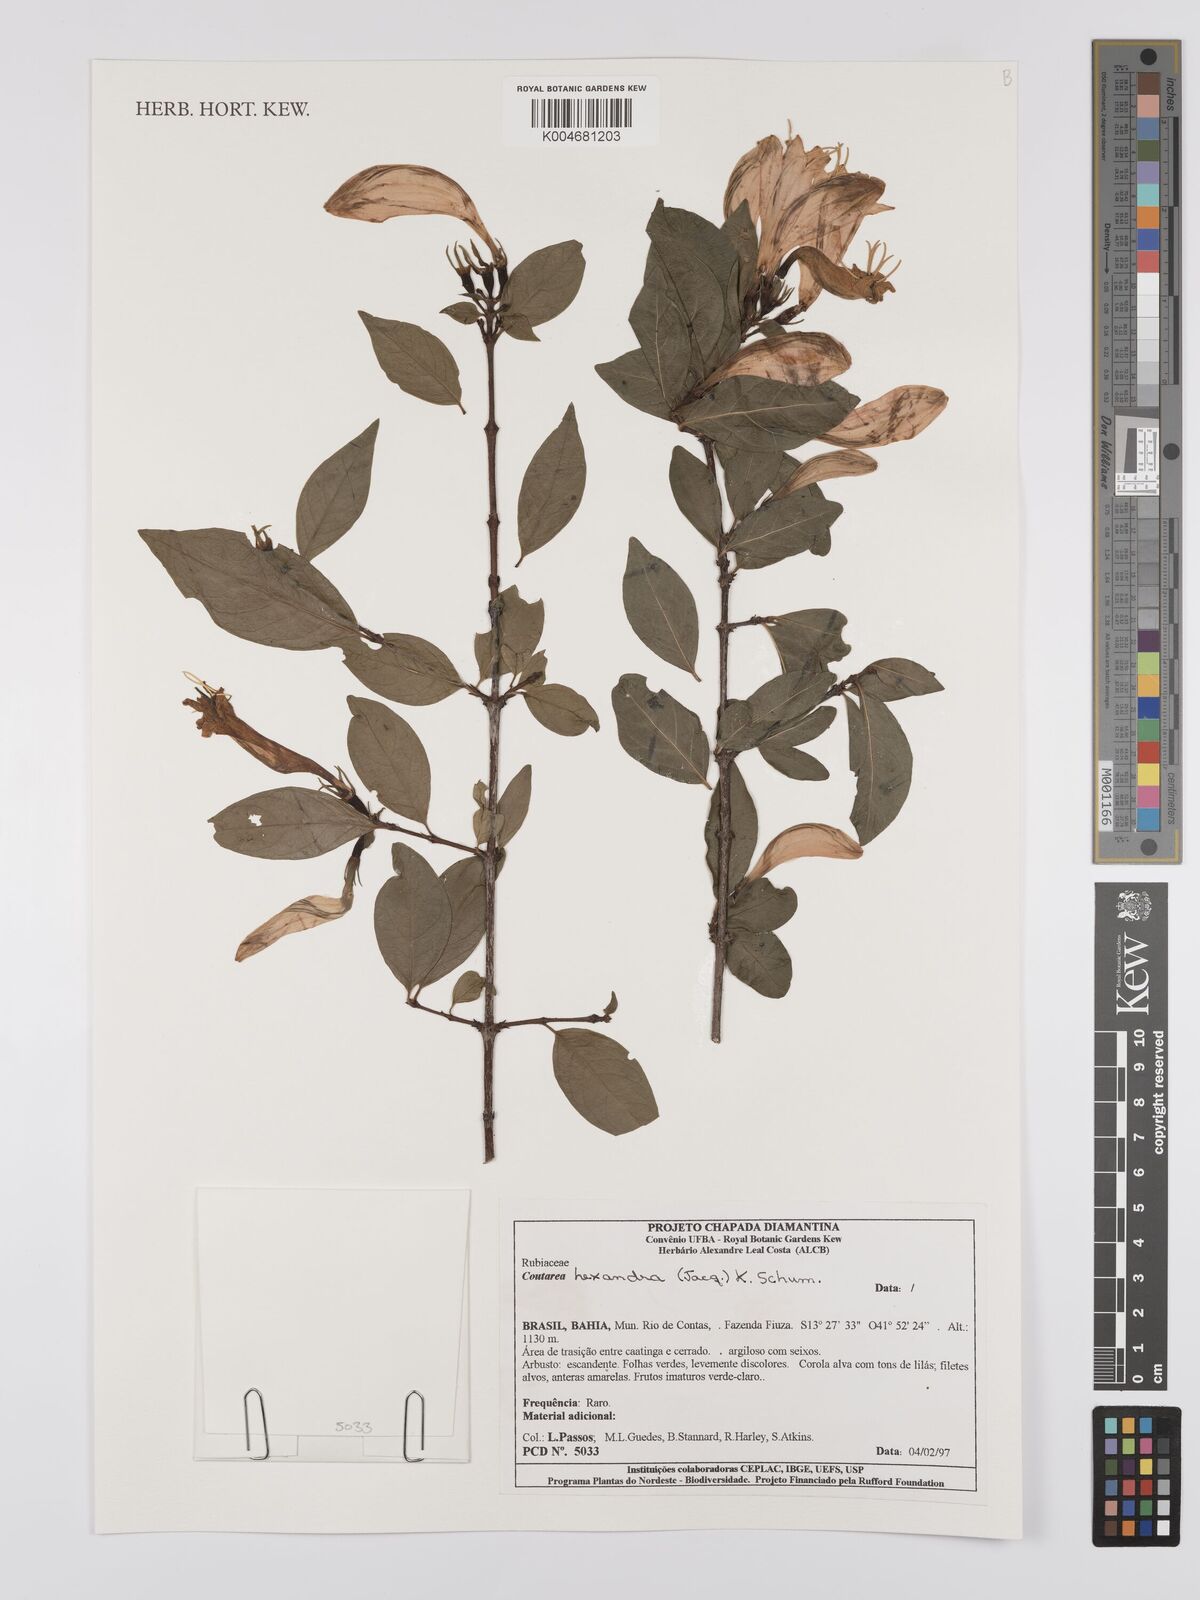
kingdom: Plantae
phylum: Tracheophyta
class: Magnoliopsida
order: Gentianales
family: Rubiaceae
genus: Coutarea
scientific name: Coutarea hexandra
